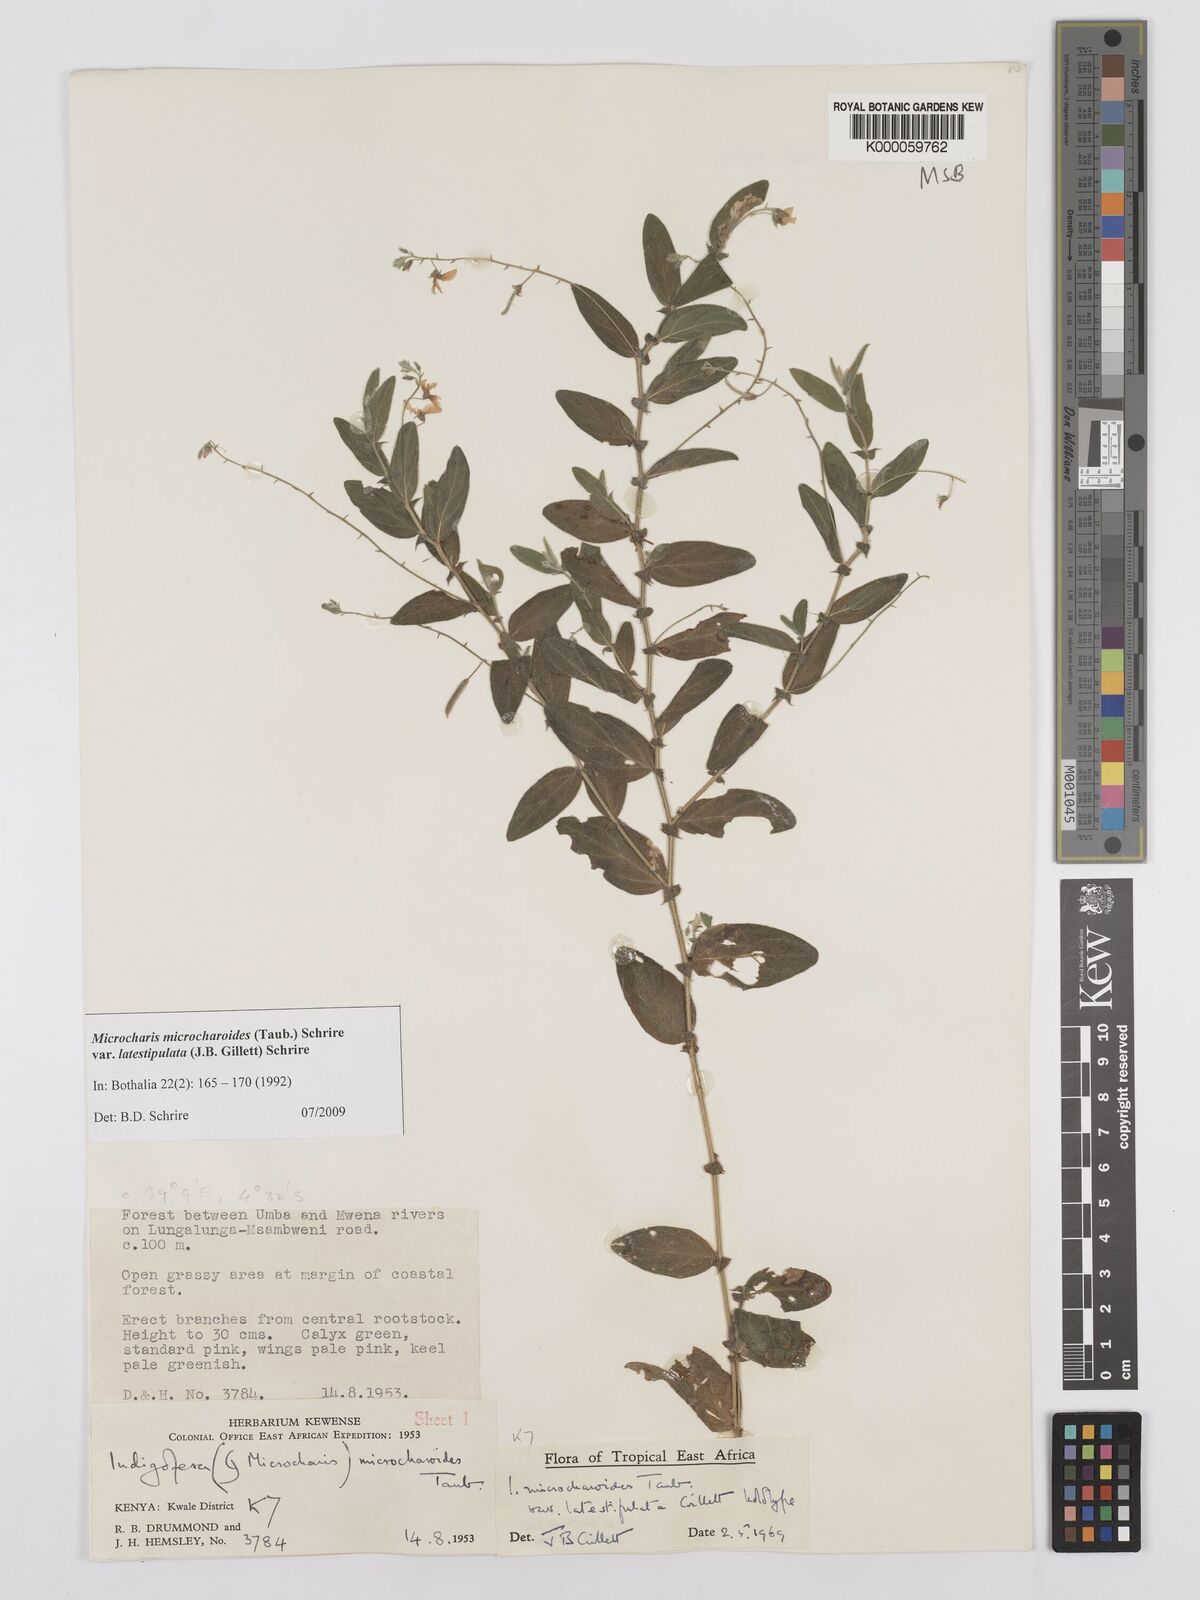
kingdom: Plantae
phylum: Tracheophyta
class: Magnoliopsida
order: Fabales
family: Fabaceae
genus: Indigofera
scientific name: Indigofera
